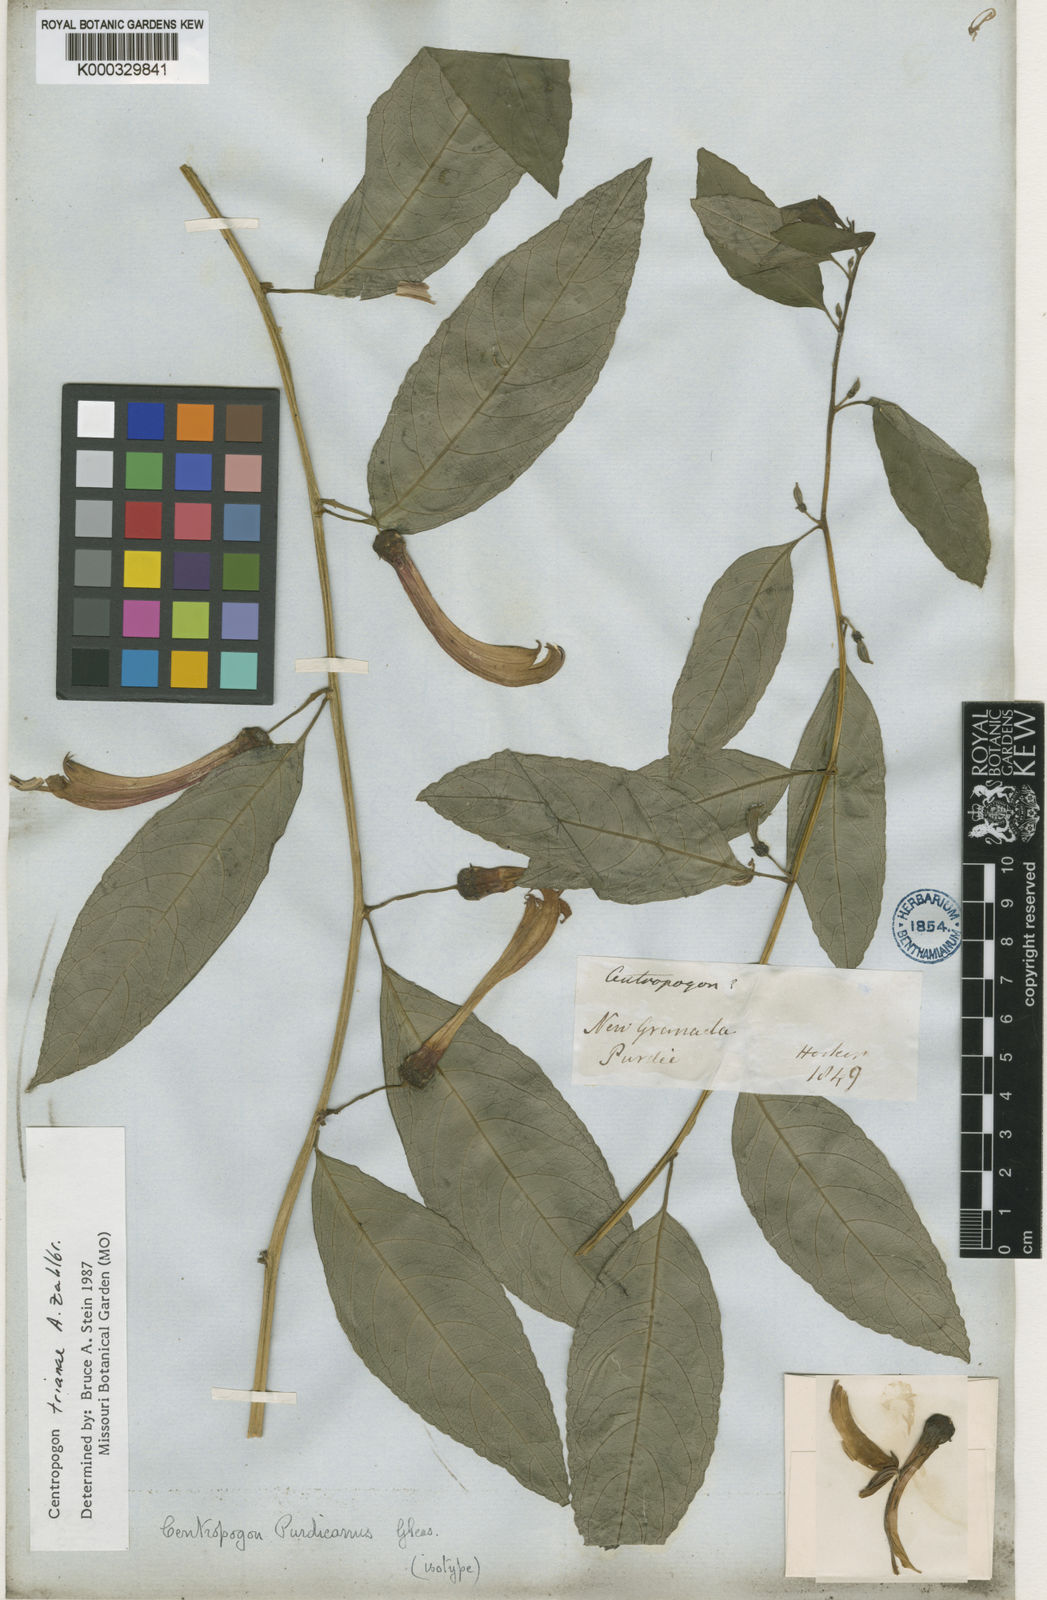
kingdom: Plantae
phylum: Tracheophyta
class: Magnoliopsida
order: Asterales
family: Campanulaceae
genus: Centropogon
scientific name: Centropogon trianae
